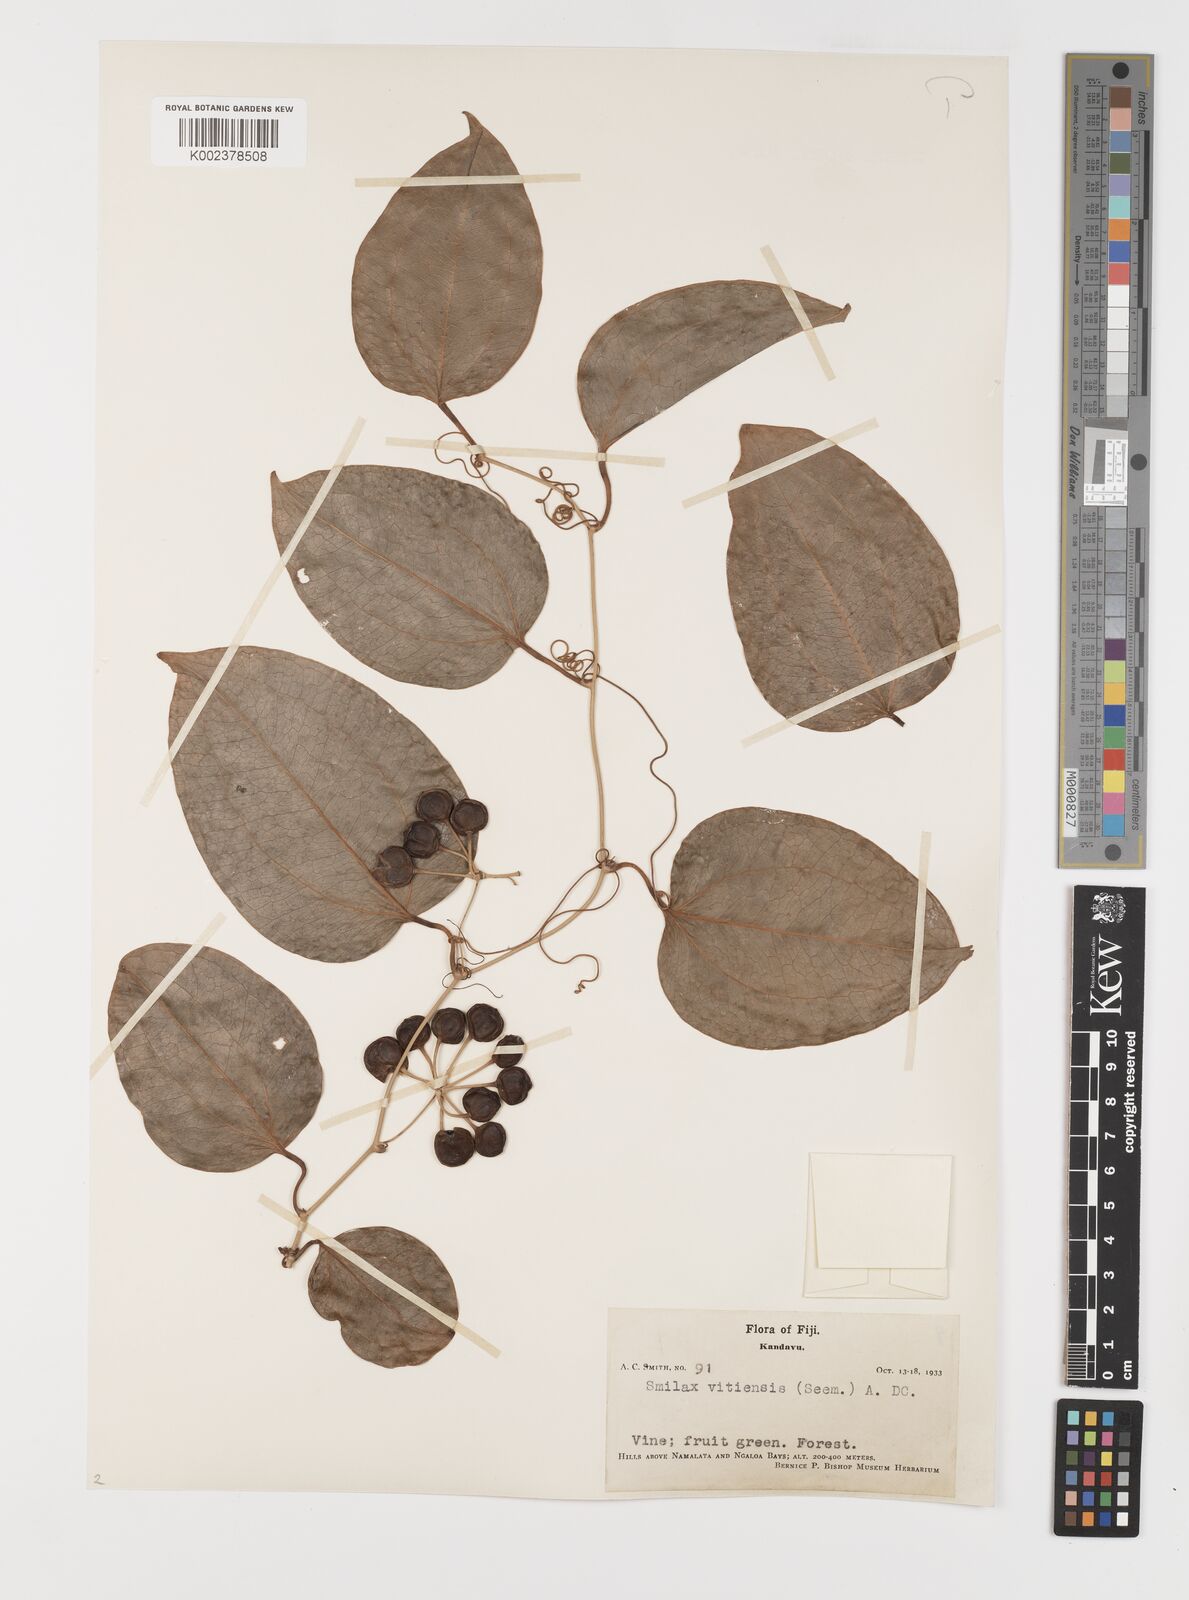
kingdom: Plantae
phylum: Tracheophyta
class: Liliopsida
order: Liliales
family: Smilacaceae
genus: Smilax
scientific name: Smilax vitiensis
